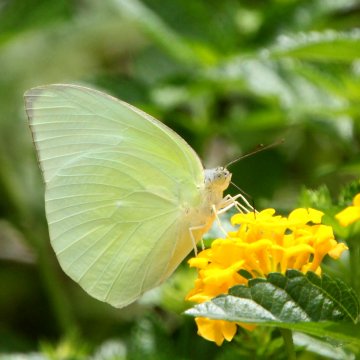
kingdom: Animalia
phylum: Arthropoda
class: Insecta
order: Lepidoptera
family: Pieridae
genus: Catopsilia
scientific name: Catopsilia pomona
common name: Lemon Migrant
